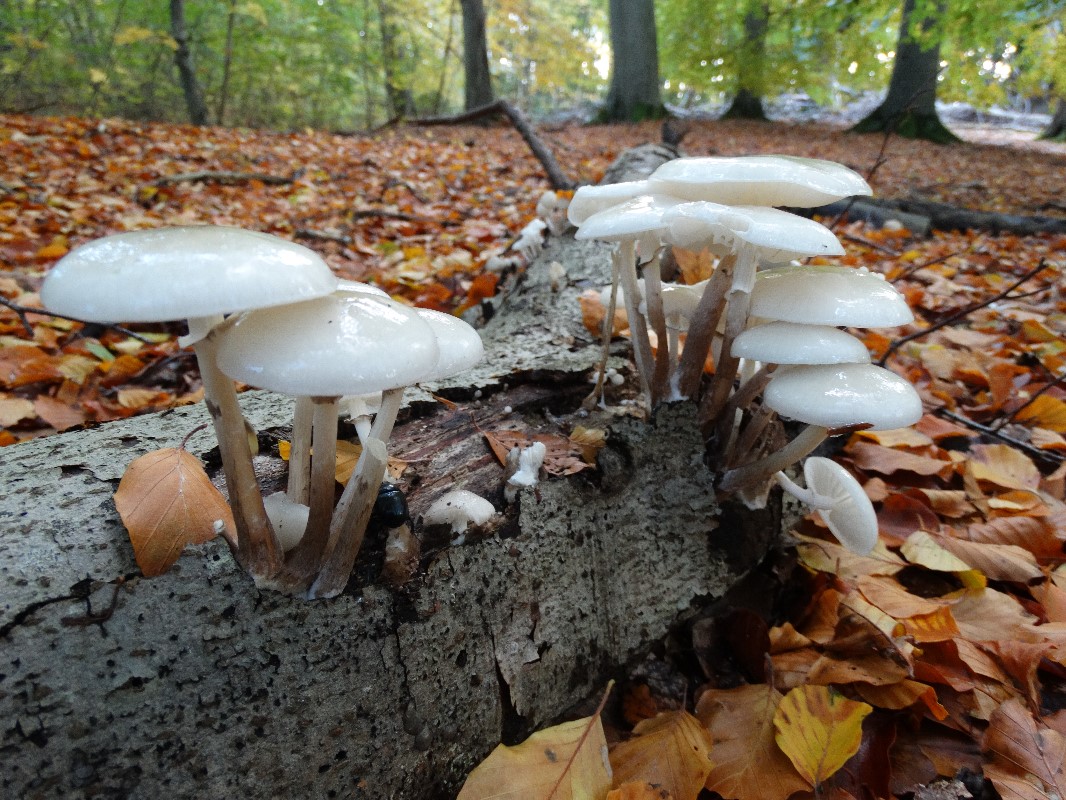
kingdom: Fungi
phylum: Basidiomycota
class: Agaricomycetes
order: Agaricales
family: Physalacriaceae
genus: Mucidula
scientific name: Mucidula mucida
